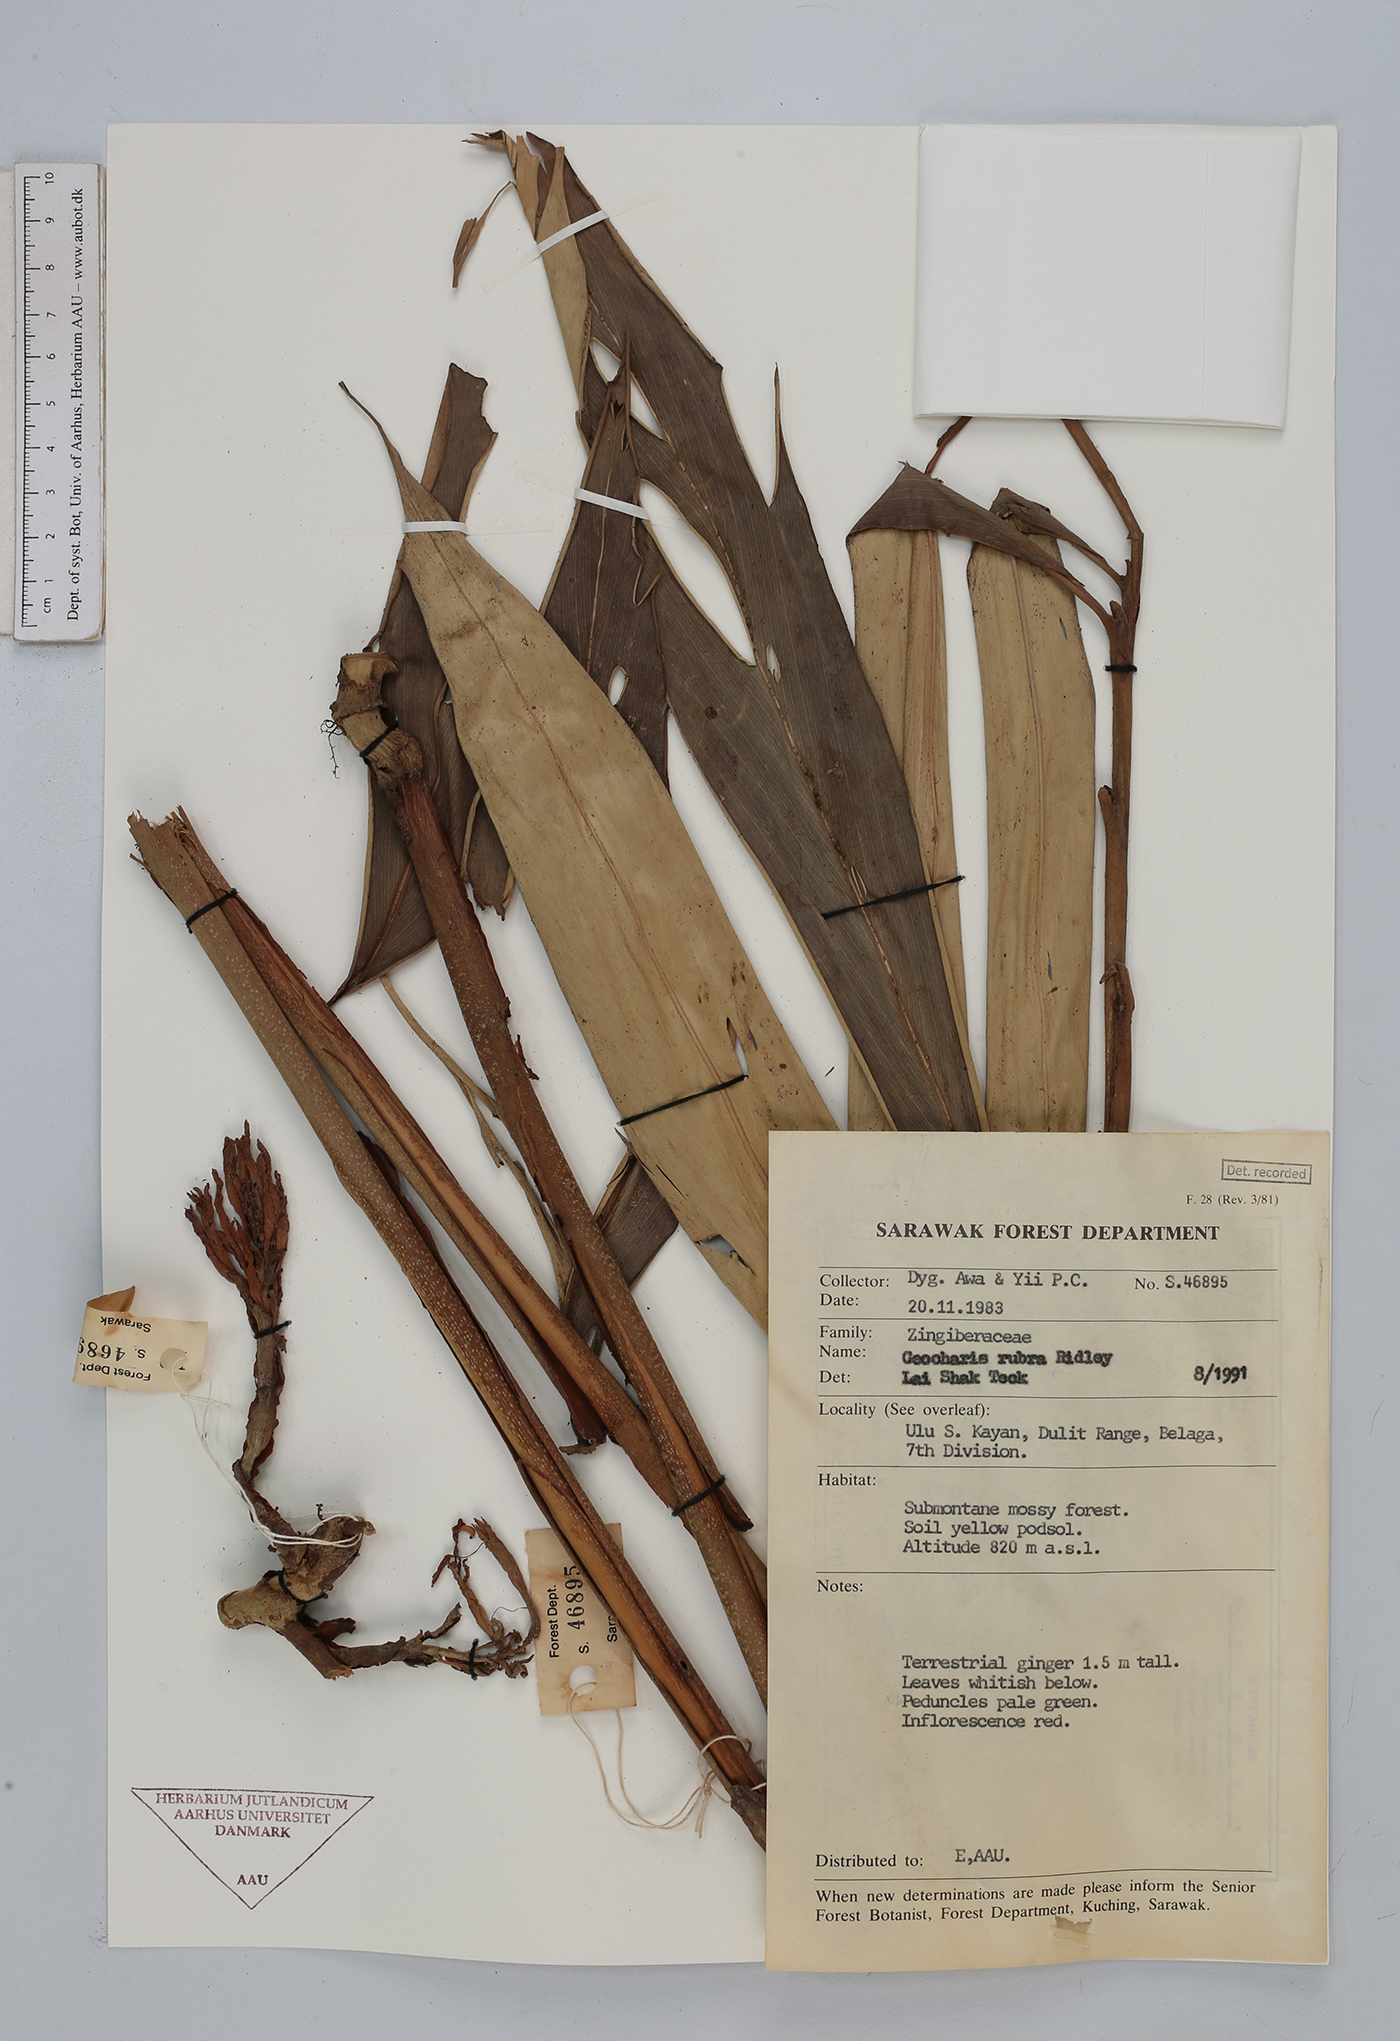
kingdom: Plantae
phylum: Tracheophyta
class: Liliopsida
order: Zingiberales
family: Zingiberaceae
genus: Geocharis
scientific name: Geocharis rubra
